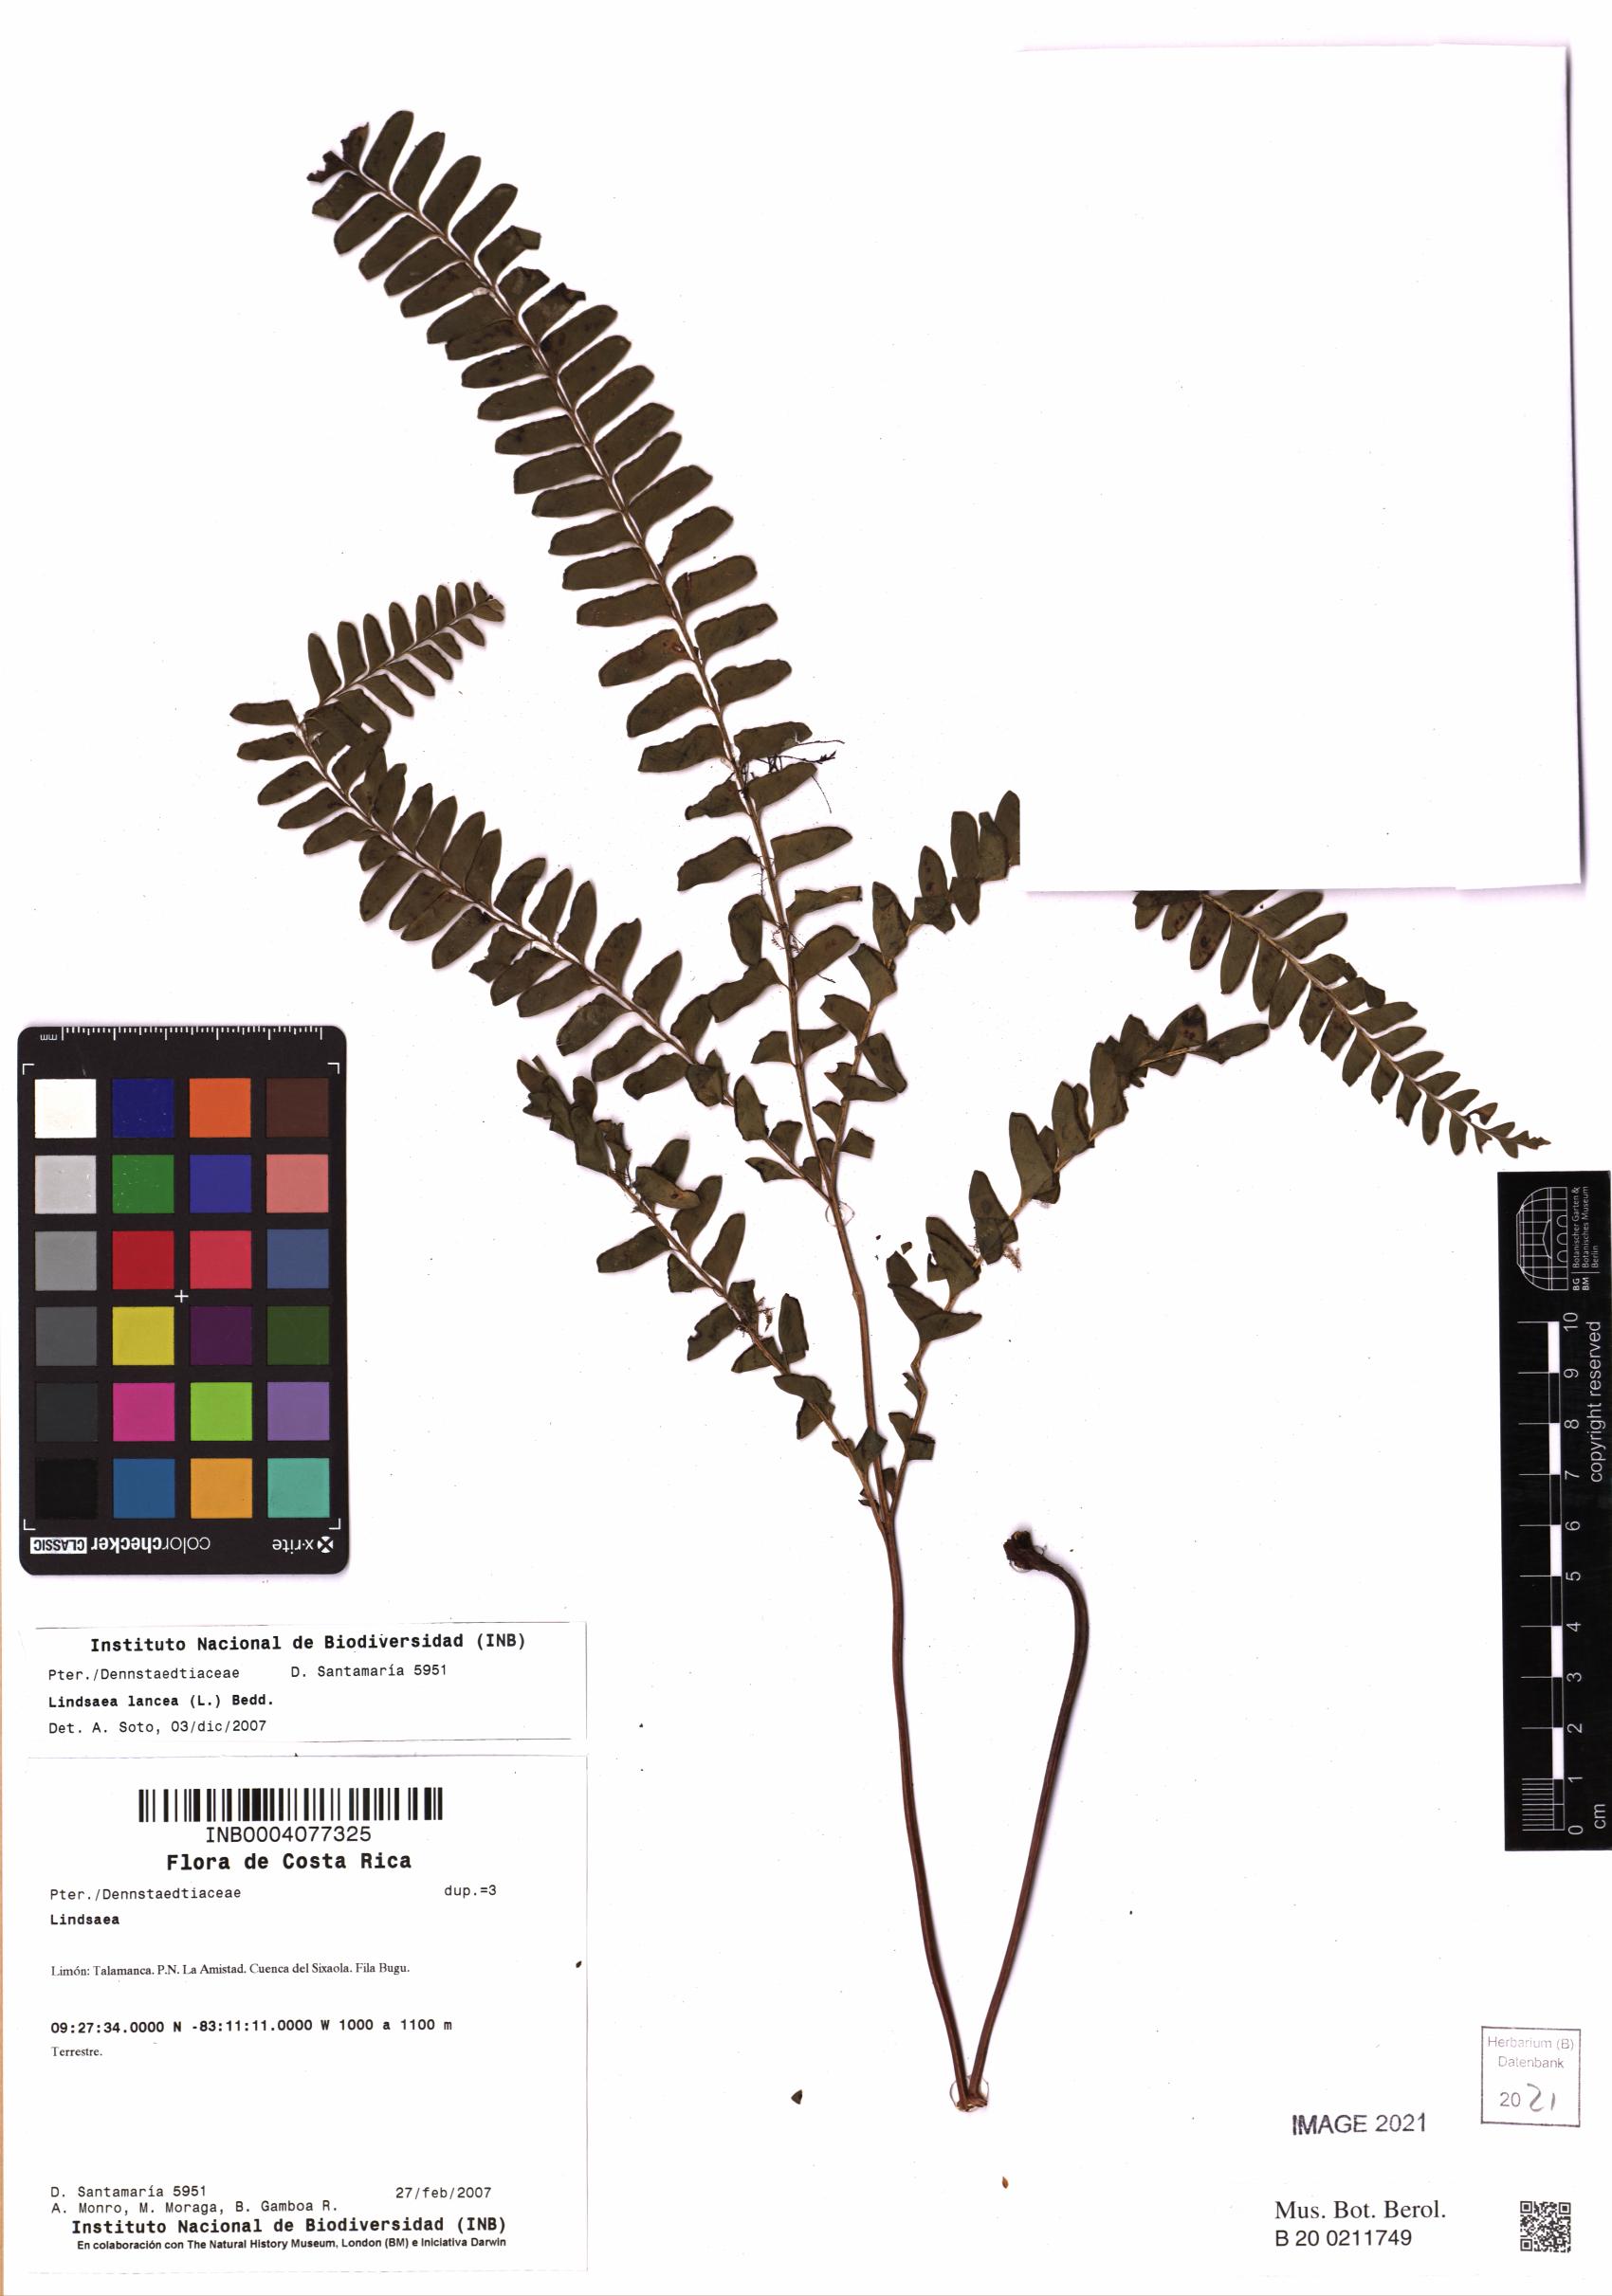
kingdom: Plantae
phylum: Tracheophyta
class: Polypodiopsida
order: Polypodiales
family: Lindsaeaceae
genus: Lindsaea
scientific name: Lindsaea lancea
